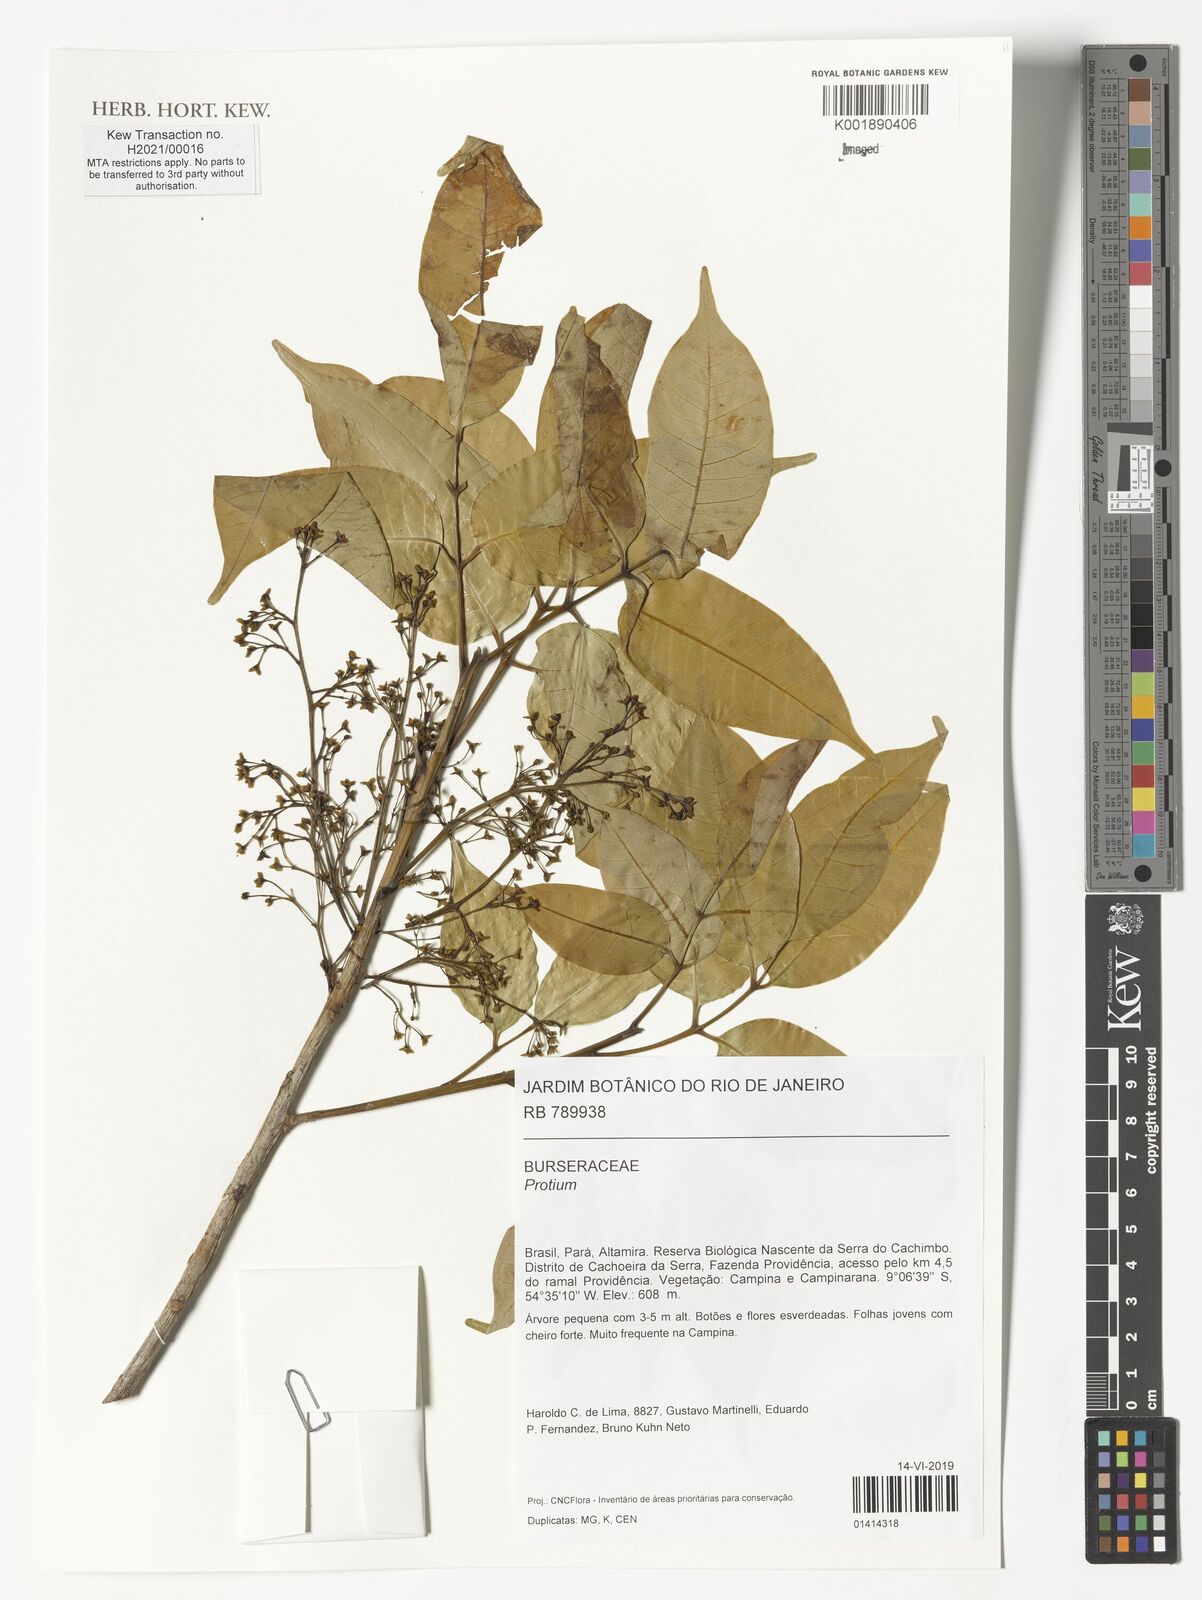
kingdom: Plantae
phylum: Tracheophyta
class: Magnoliopsida
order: Sapindales
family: Burseraceae
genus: Protium
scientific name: Protium
